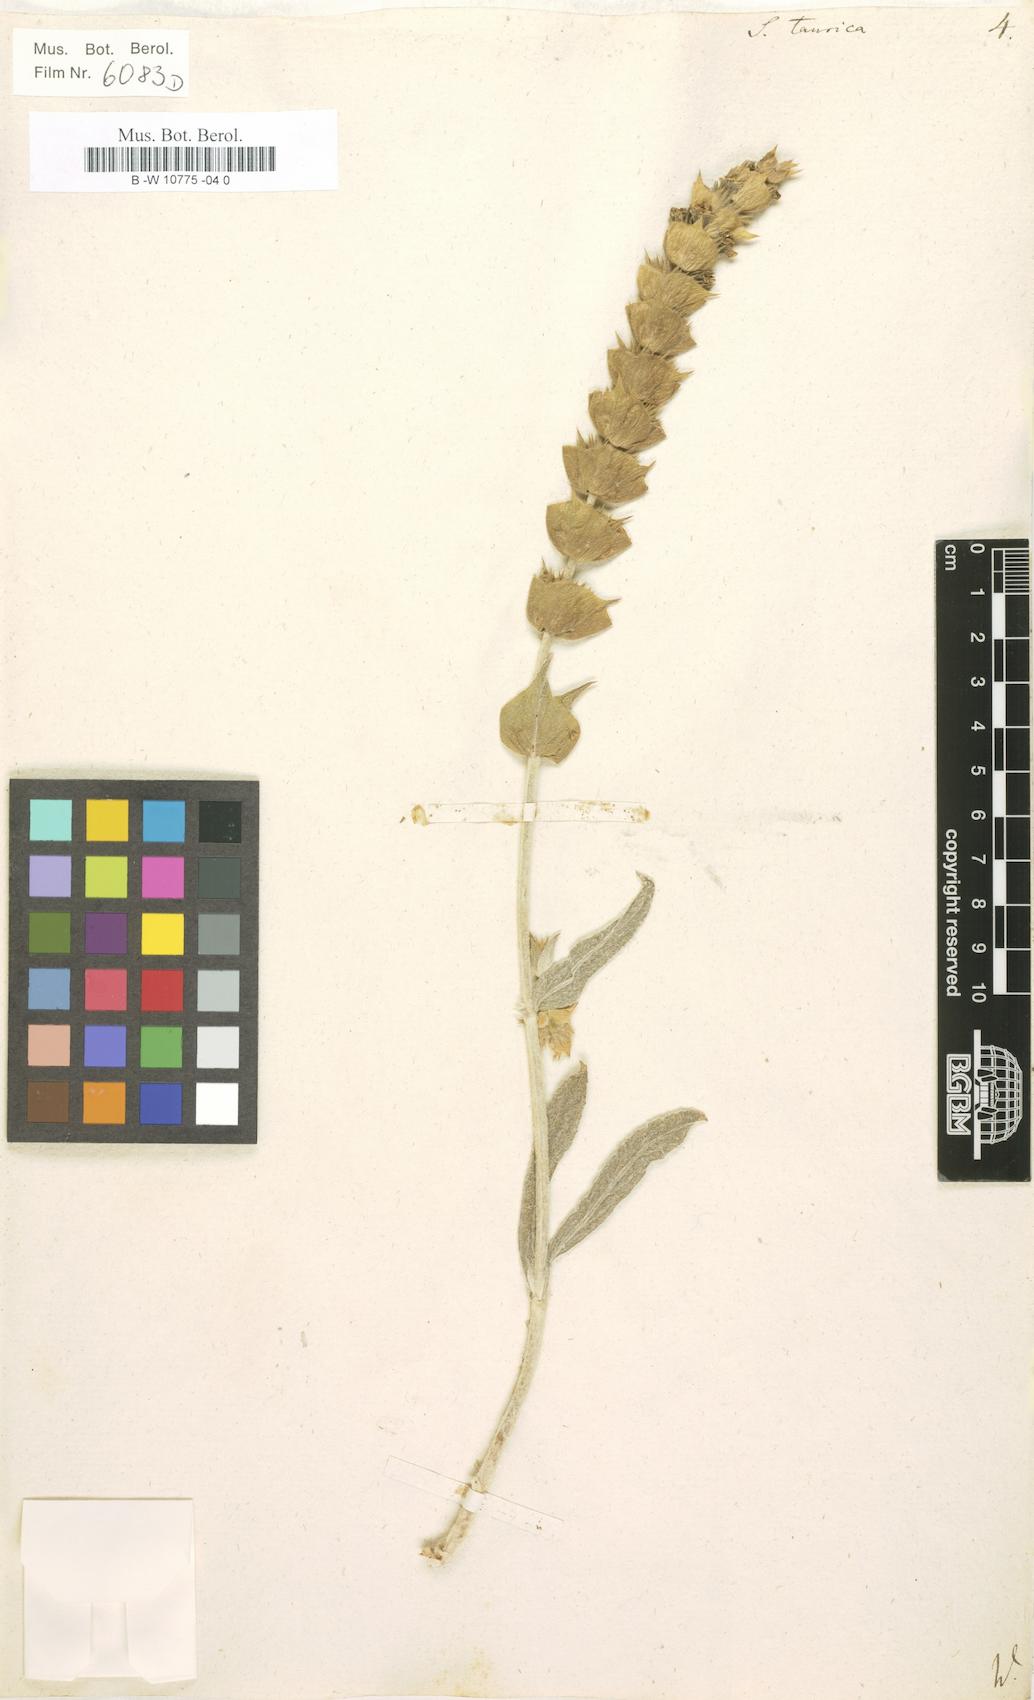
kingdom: Plantae
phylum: Tracheophyta
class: Magnoliopsida
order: Lamiales
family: Lamiaceae
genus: Sideritis
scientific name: Sideritis taurica
